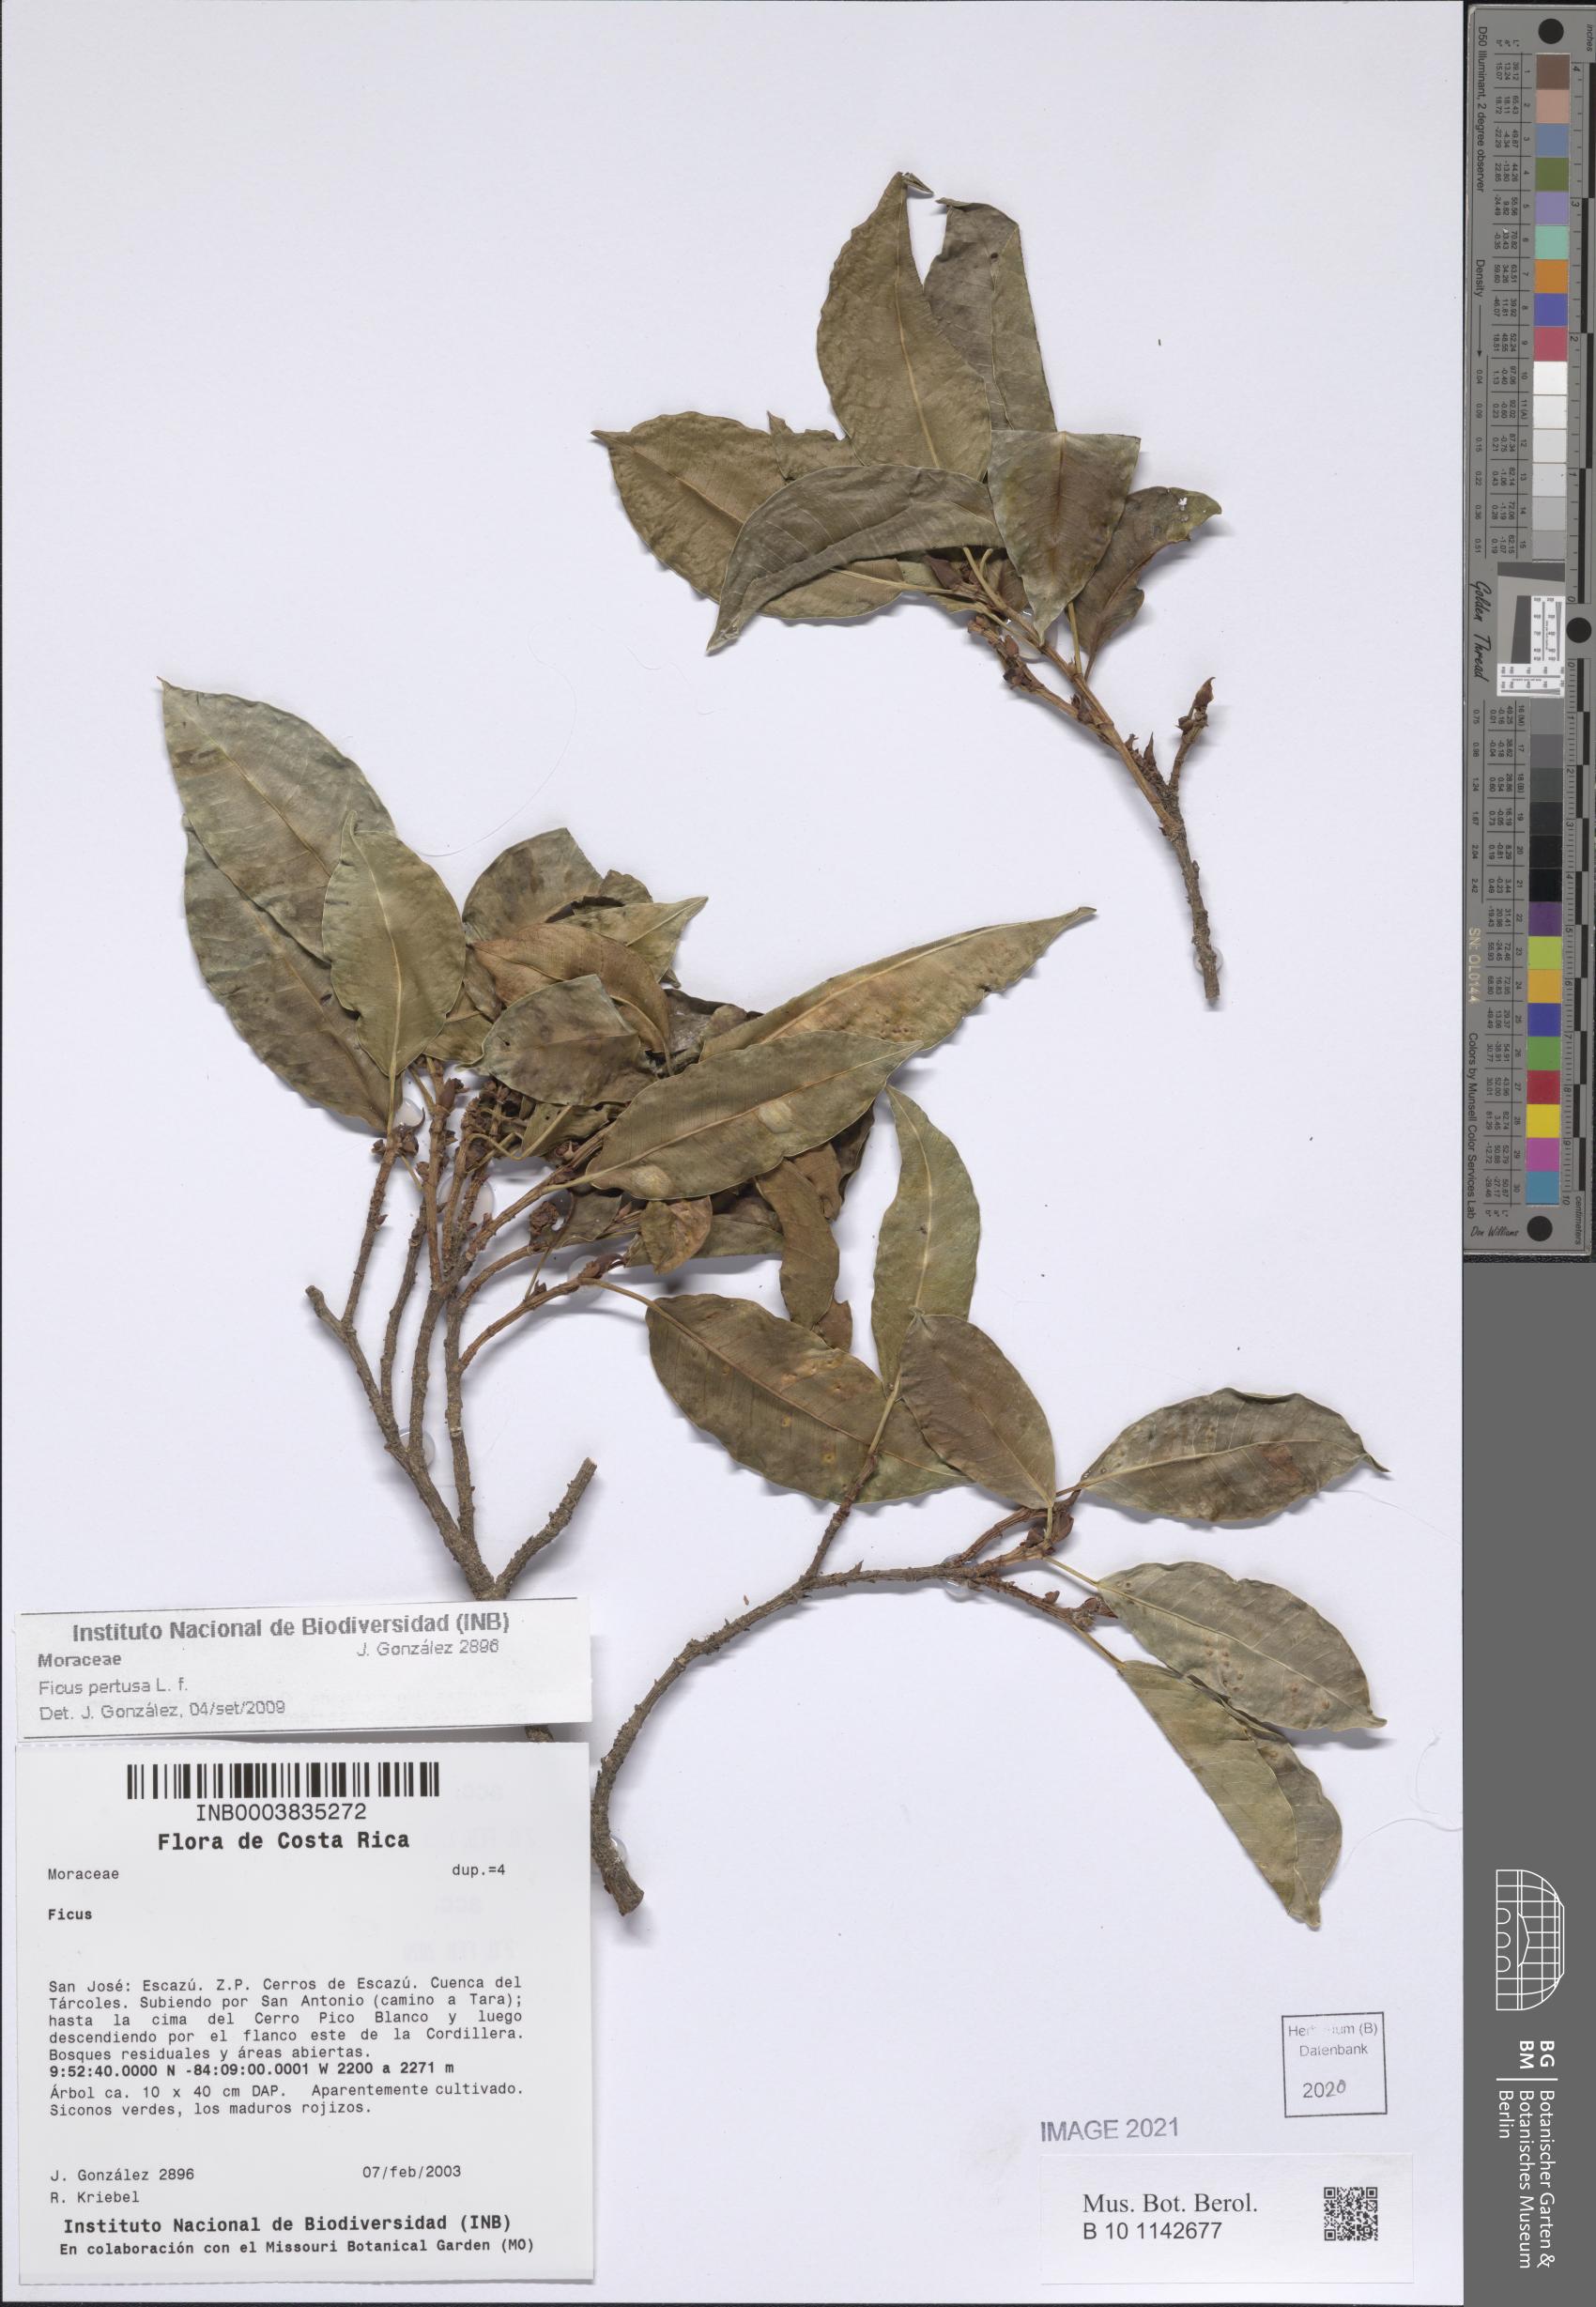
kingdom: Plantae
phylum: Tracheophyta
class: Magnoliopsida
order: Rosales
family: Moraceae
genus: Ficus
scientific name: Ficus pertusa
